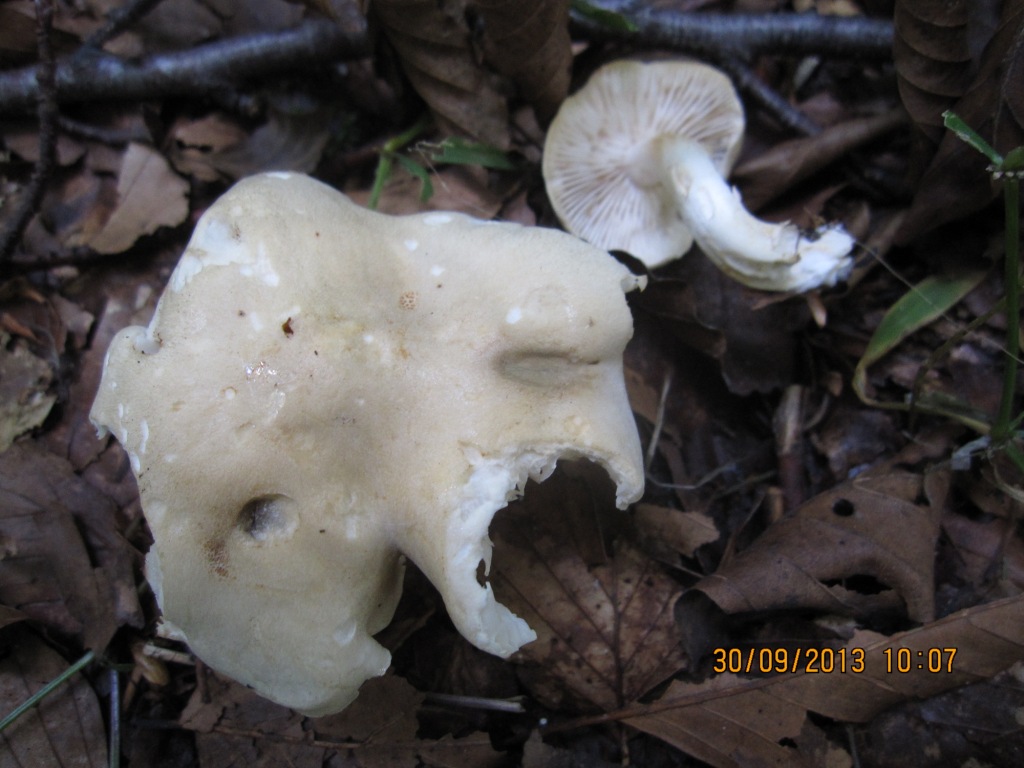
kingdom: Fungi
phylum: Basidiomycota
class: Agaricomycetes
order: Agaricales
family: Tricholomataceae
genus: Tricholoma
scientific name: Tricholoma lascivum
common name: stinkende ridderhat
